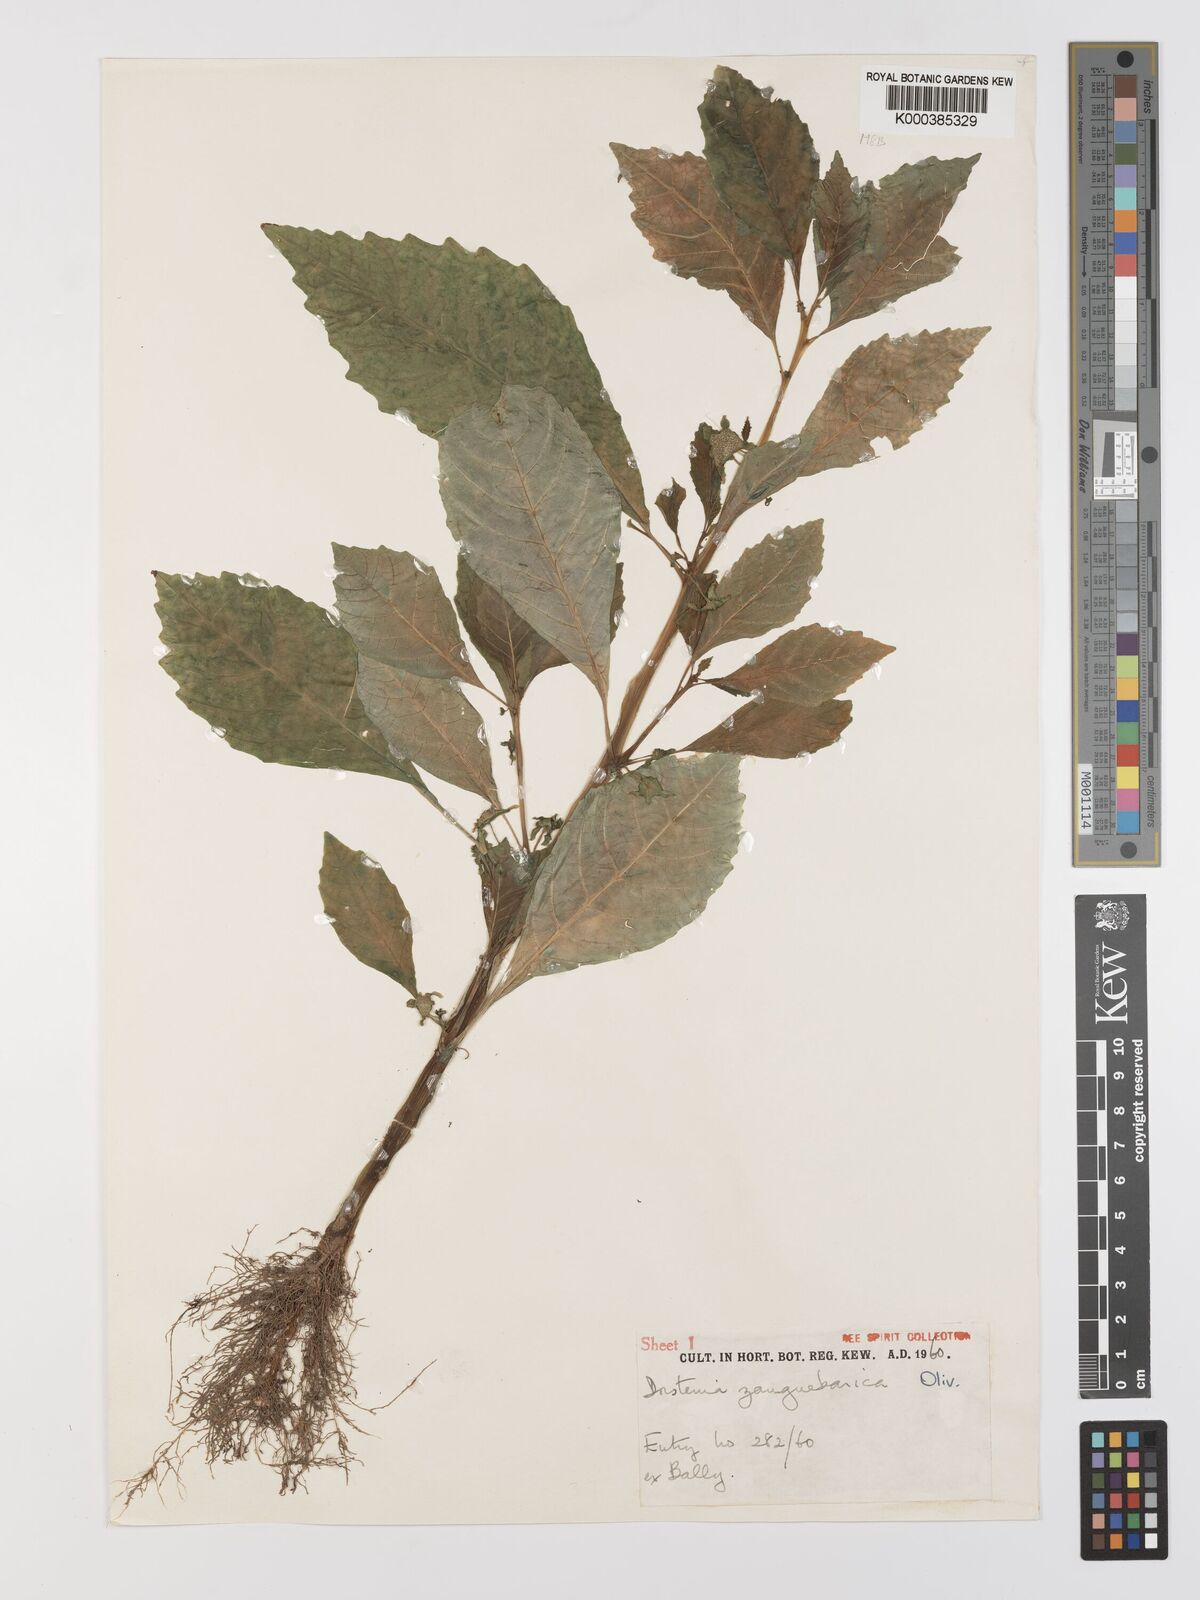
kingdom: Plantae
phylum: Tracheophyta
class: Magnoliopsida
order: Rosales
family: Moraceae
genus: Dorstenia
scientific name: Dorstenia zanzibarica
